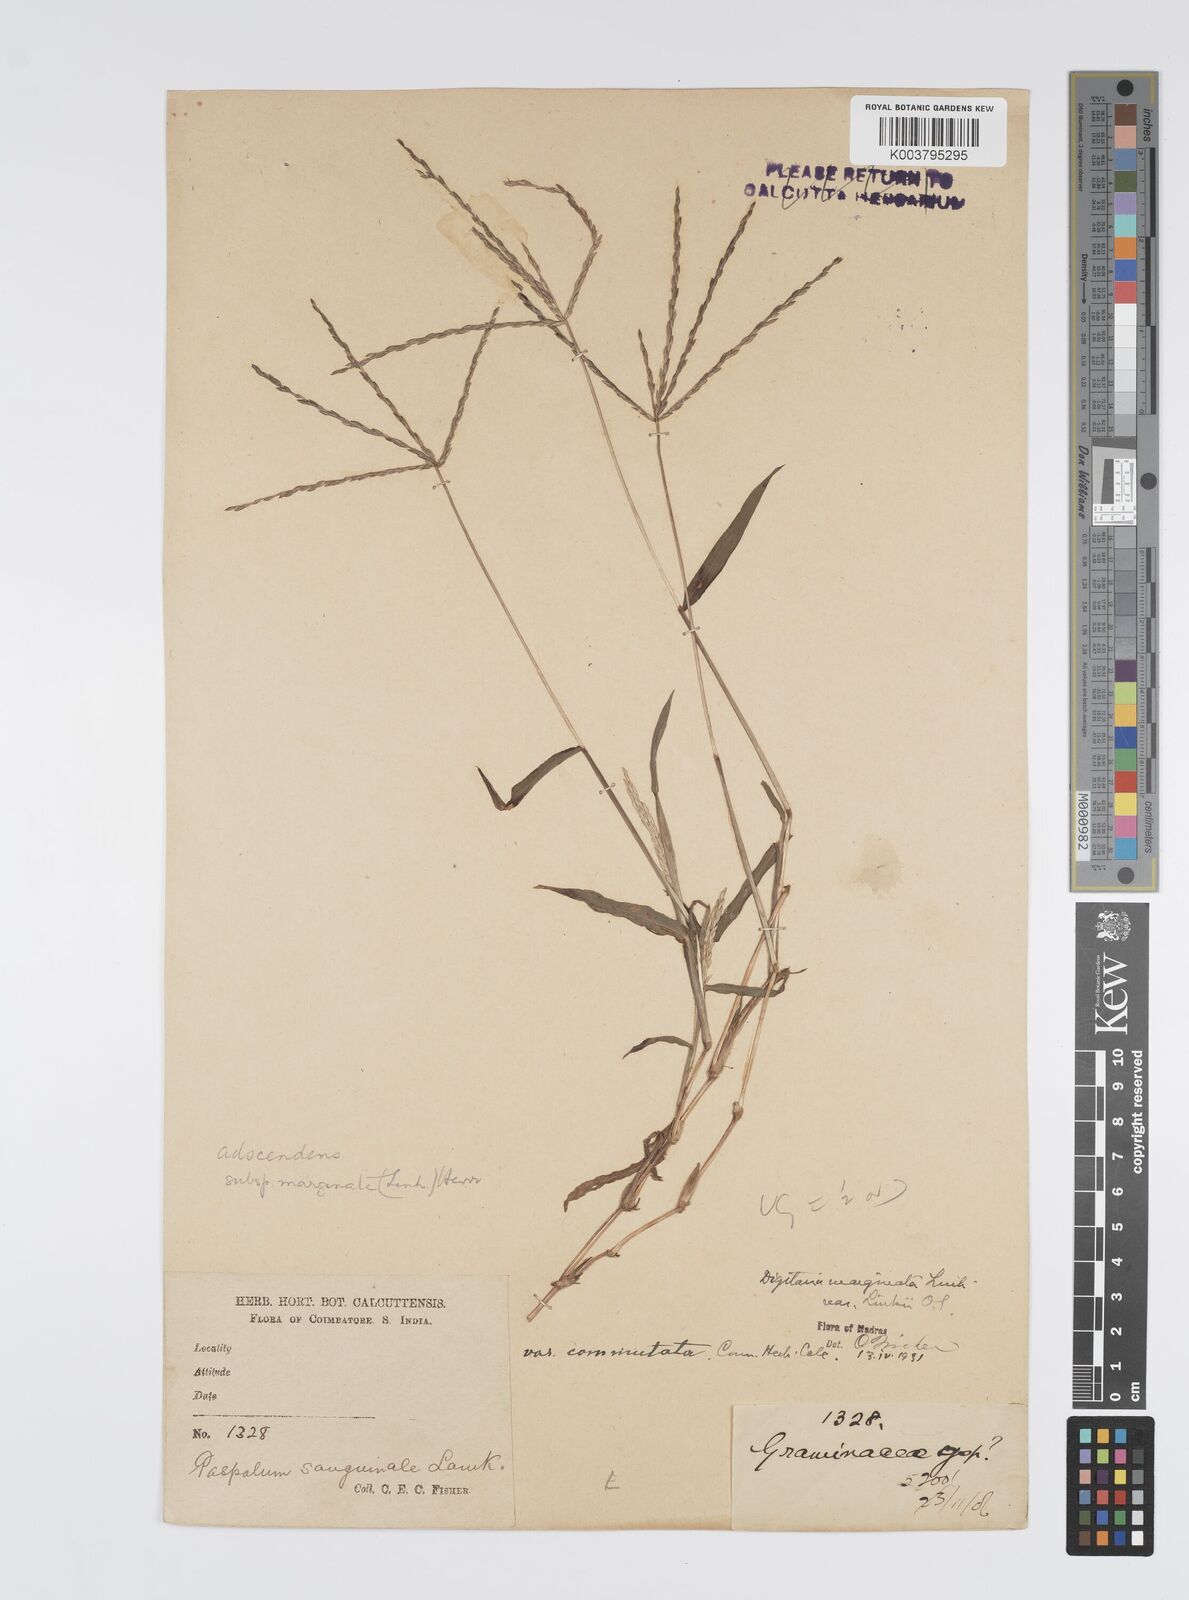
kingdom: Plantae
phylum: Tracheophyta
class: Liliopsida
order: Poales
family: Poaceae
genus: Digitaria
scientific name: Digitaria spec
